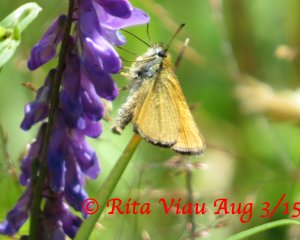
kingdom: Animalia
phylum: Arthropoda
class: Insecta
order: Lepidoptera
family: Hesperiidae
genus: Thymelicus
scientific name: Thymelicus lineola
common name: European Skipper
